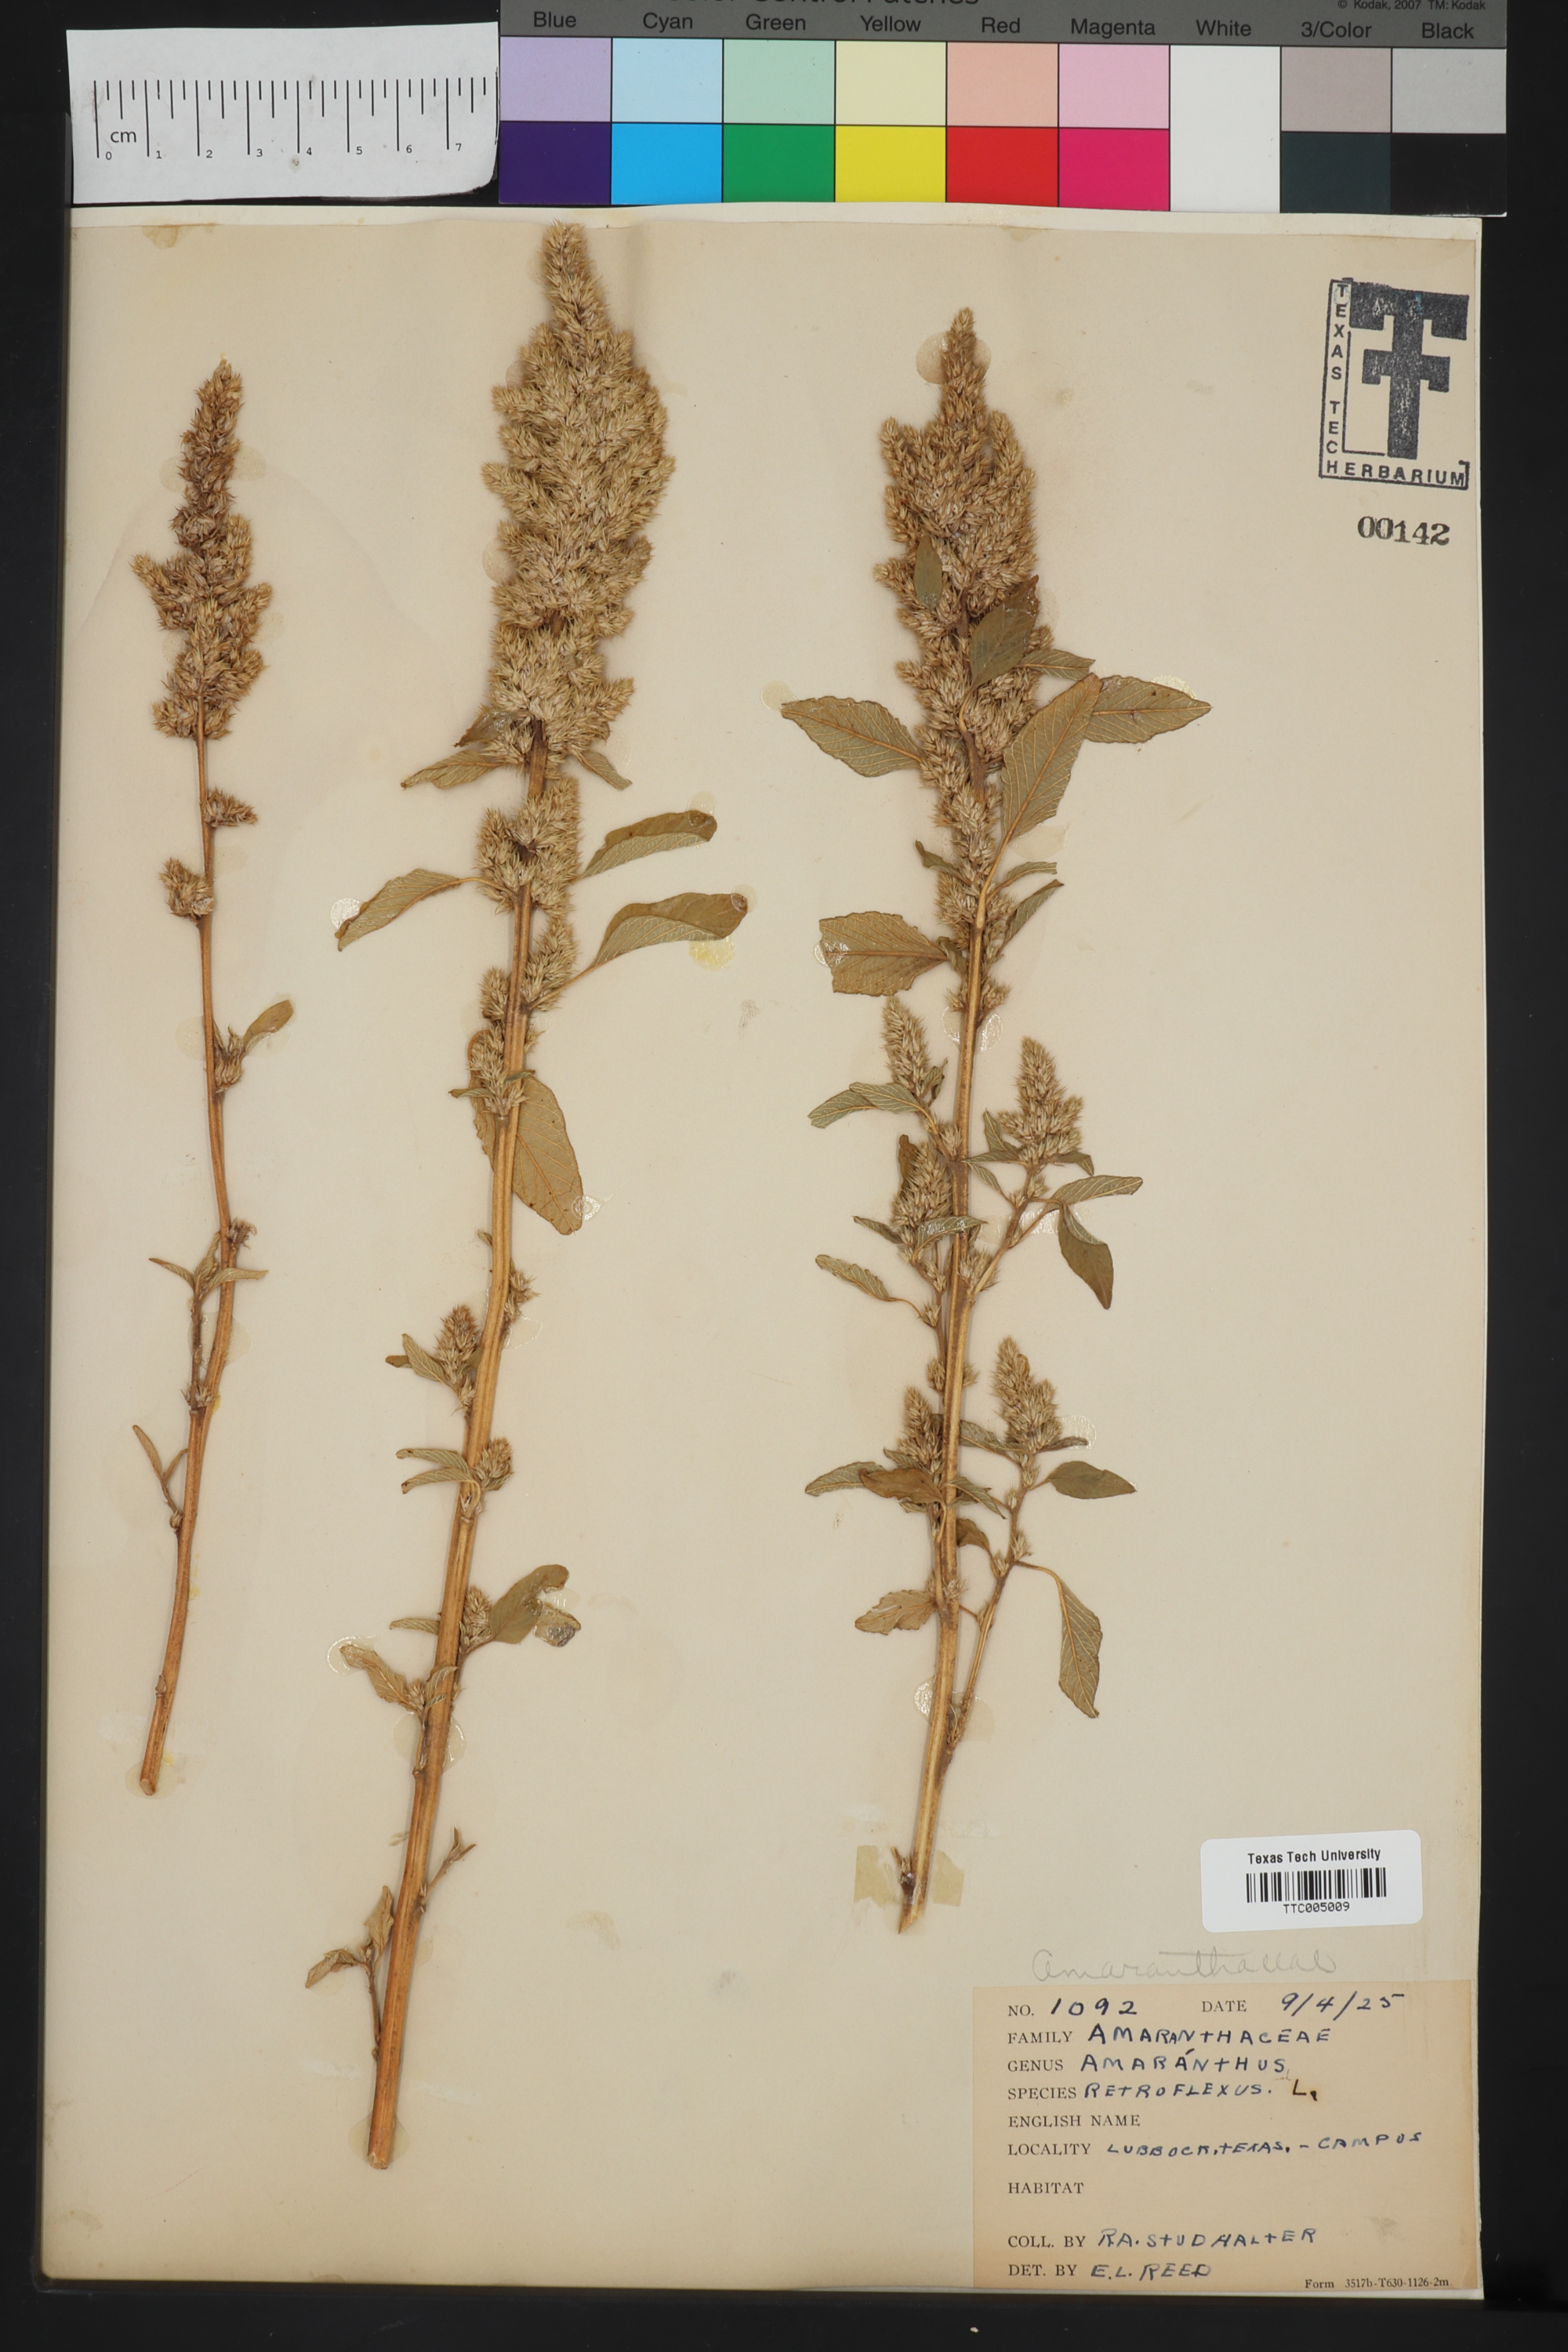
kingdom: Plantae
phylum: Tracheophyta
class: Magnoliopsida
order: Caryophyllales
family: Amaranthaceae
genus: Amaranthus
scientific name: Amaranthus retroflexus
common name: Redroot amaranth
